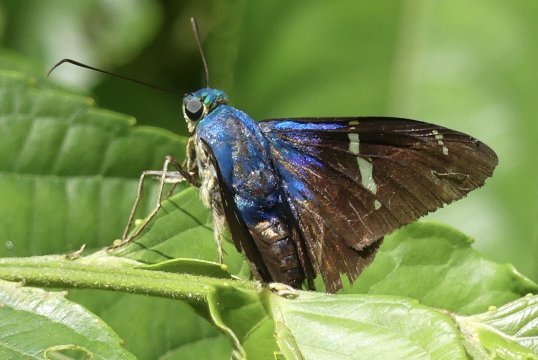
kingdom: Animalia
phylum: Arthropoda
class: Insecta
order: Lepidoptera
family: Hesperiidae
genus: Astraptes
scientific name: Astraptes fulgerator
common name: Two-barred Flasher
